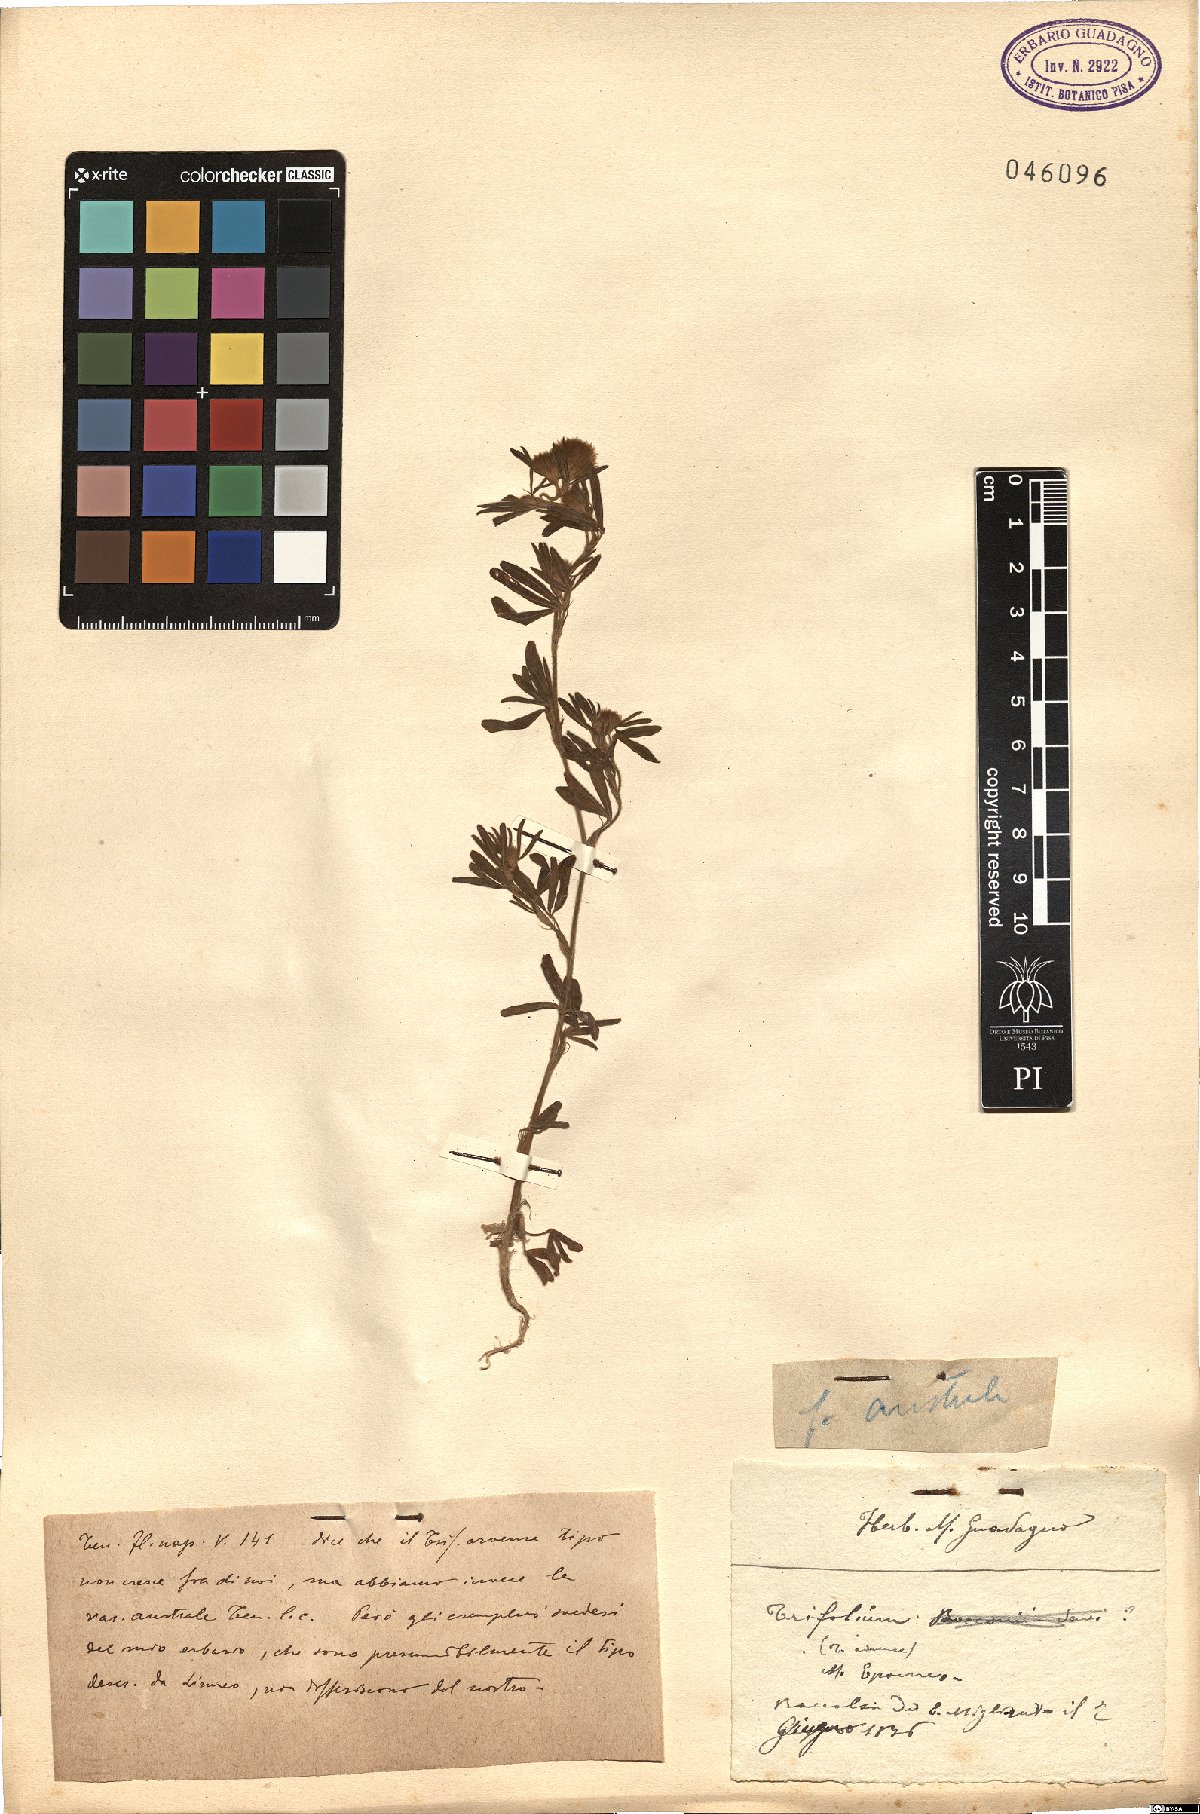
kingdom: Plantae
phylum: Tracheophyta
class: Magnoliopsida
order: Fabales
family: Fabaceae
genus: Trifolium
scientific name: Trifolium arvense
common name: Hare's-foot clover
